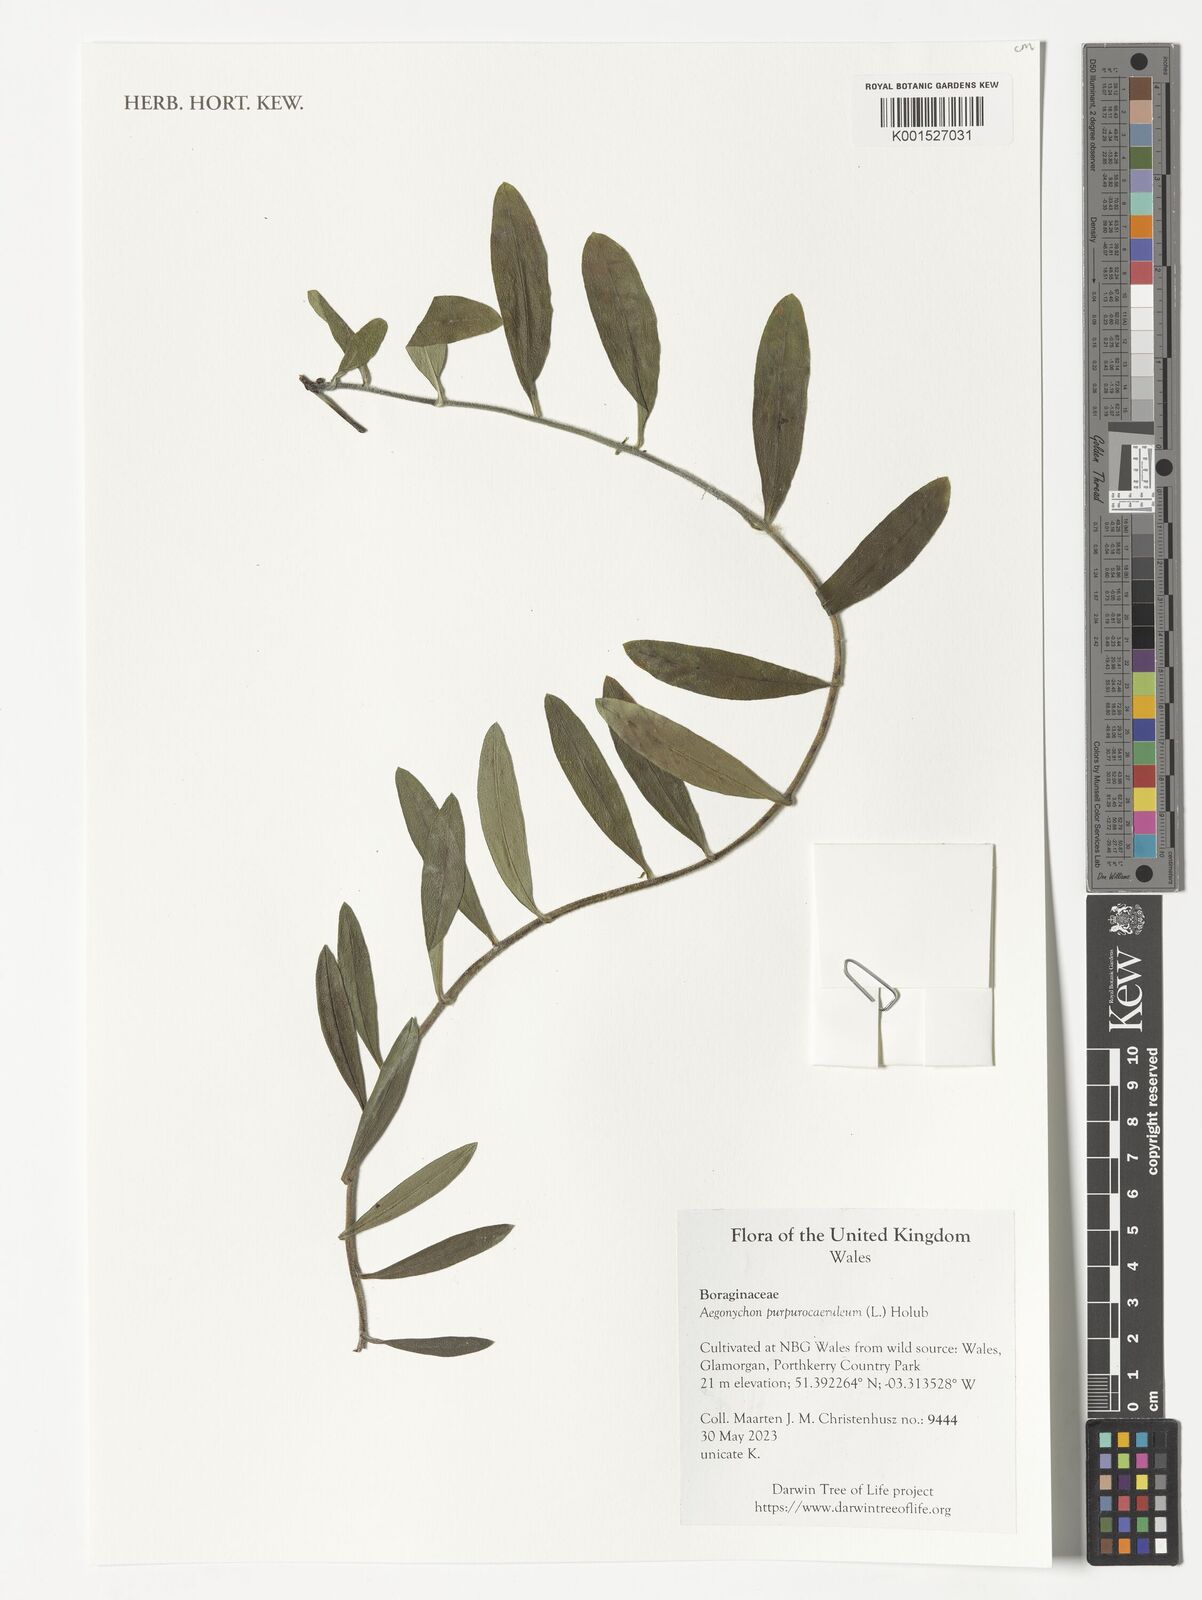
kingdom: Plantae
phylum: Tracheophyta
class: Magnoliopsida
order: Boraginales
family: Boraginaceae
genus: Aegonychon
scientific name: Aegonychon purpurocaeruleum
